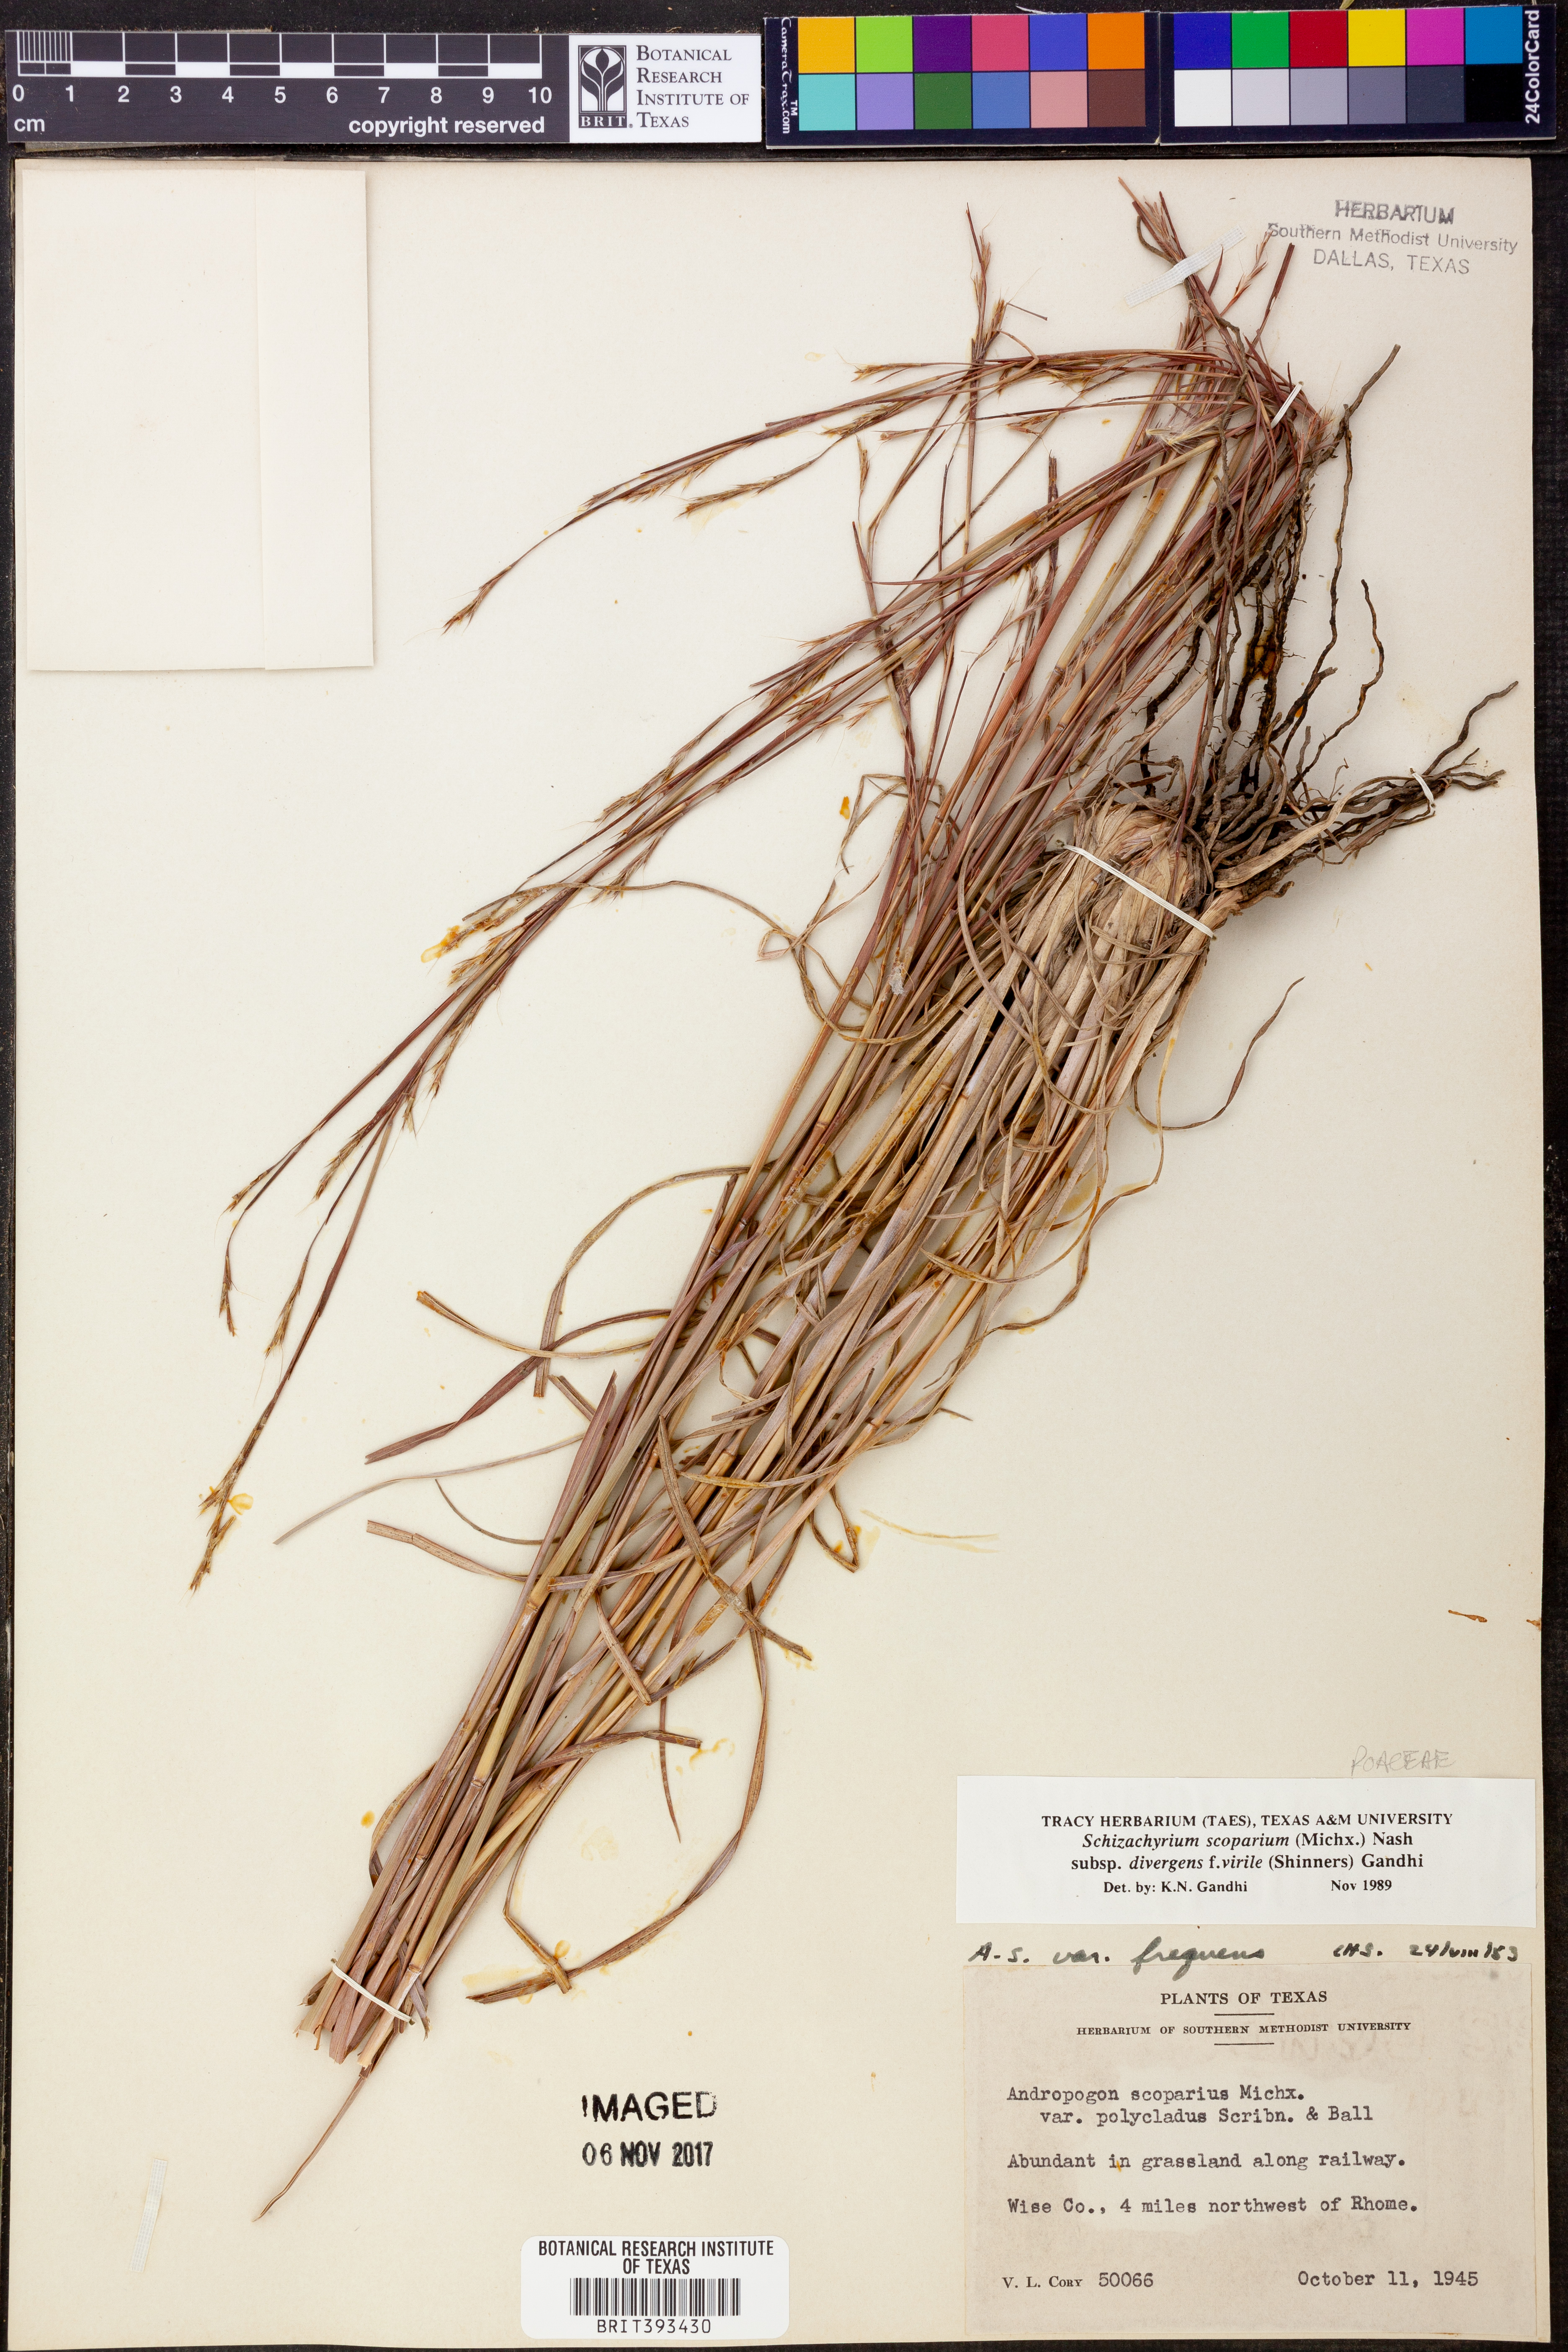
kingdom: Plantae
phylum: Tracheophyta
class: Liliopsida
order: Poales
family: Poaceae
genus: Schizachyrium
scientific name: Schizachyrium scoparium
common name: Little bluestem
